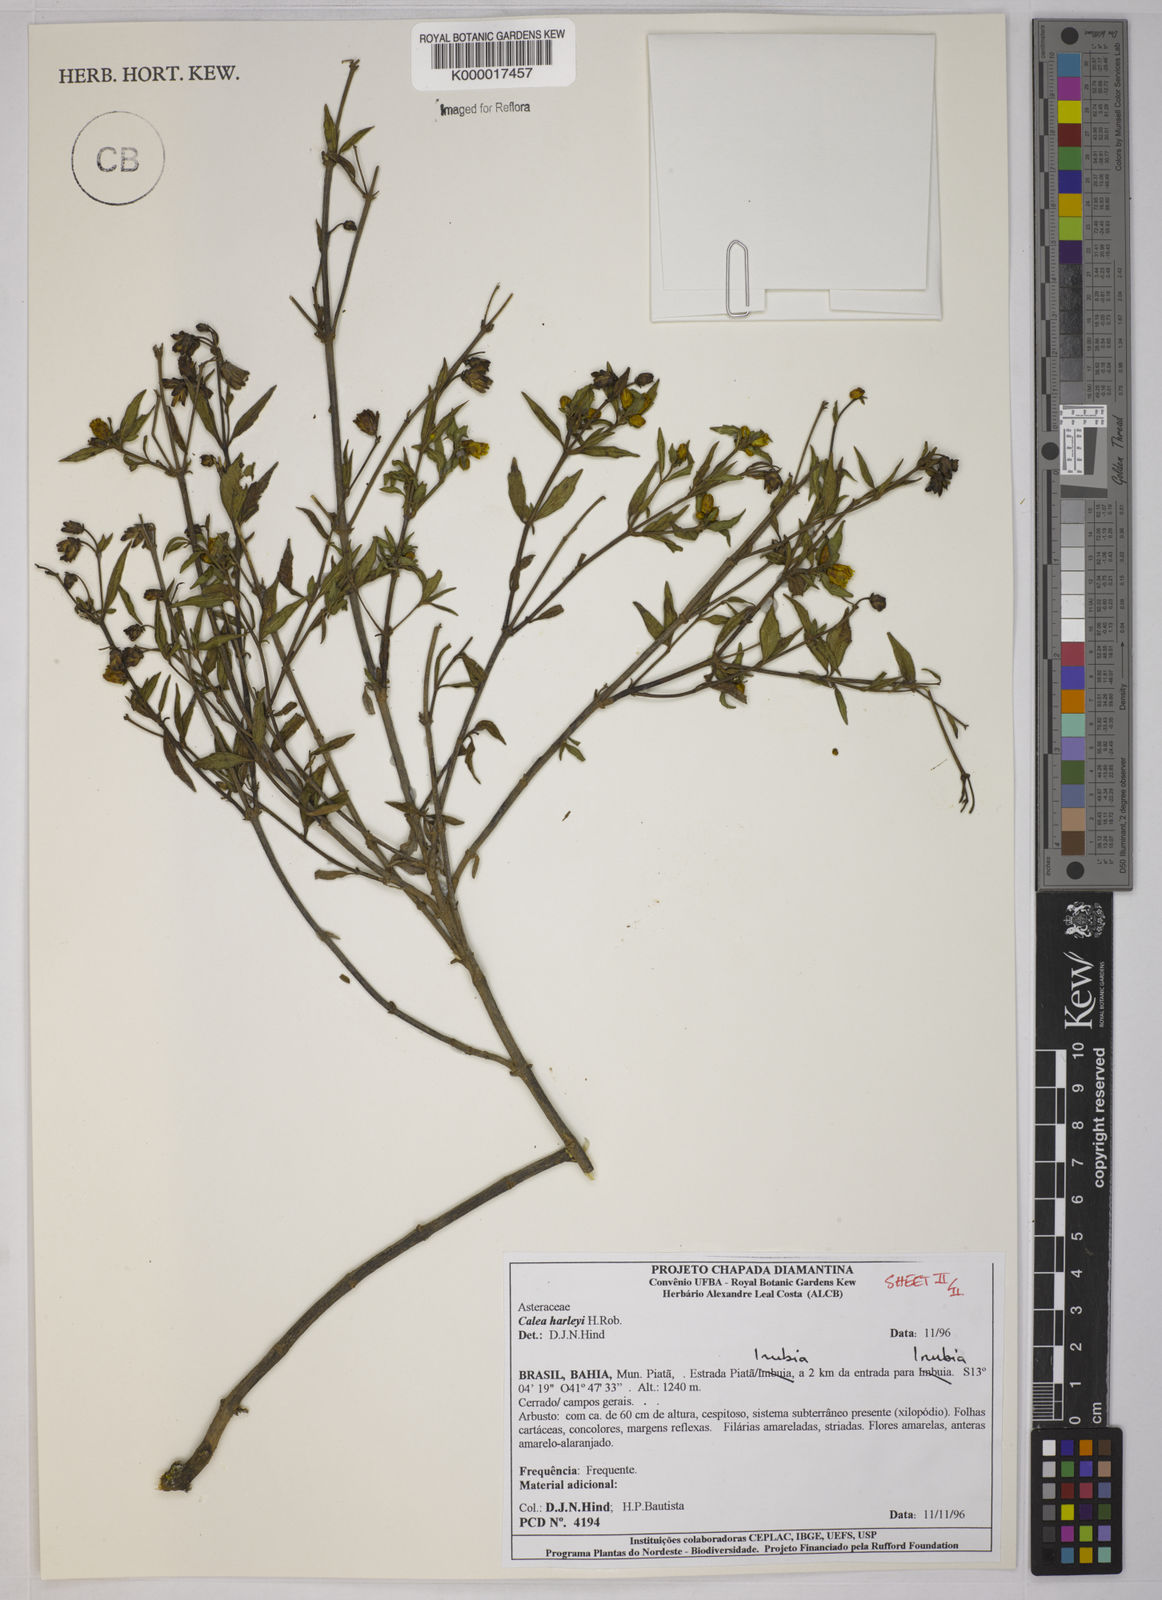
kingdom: Plantae
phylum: Tracheophyta
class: Magnoliopsida
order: Asterales
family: Asteraceae
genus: Calea
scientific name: Calea harleyi
